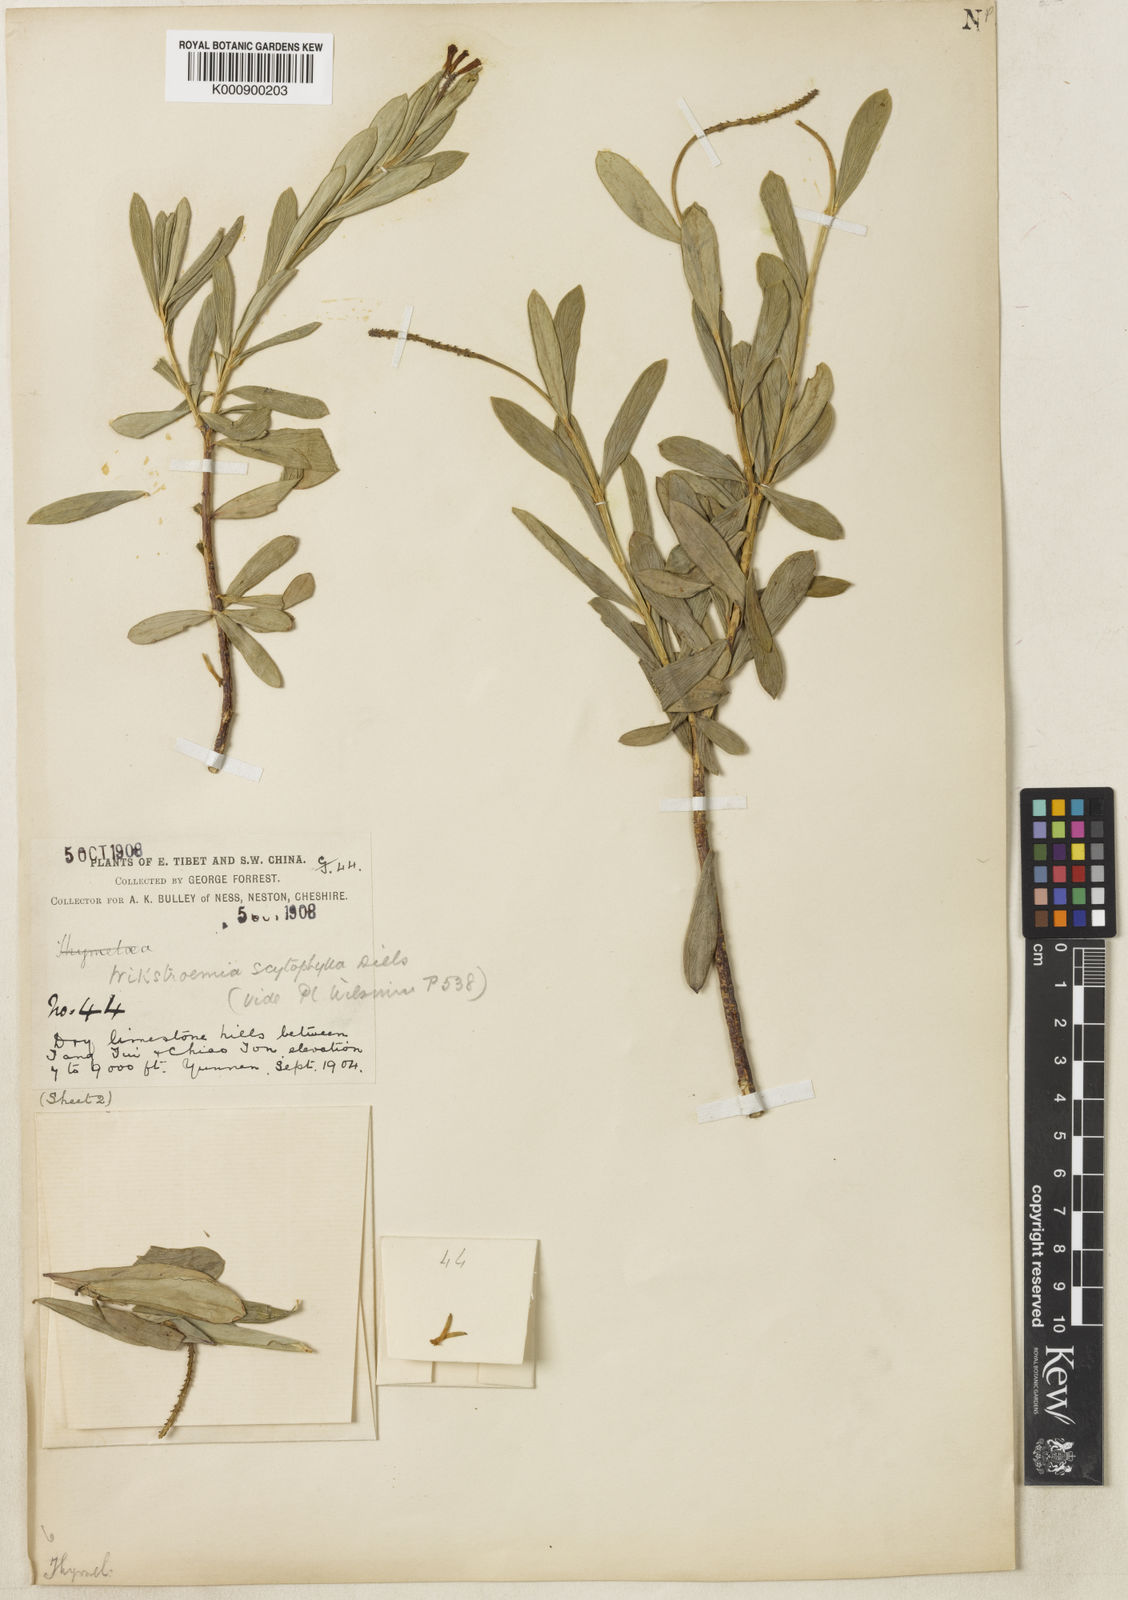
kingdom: Plantae
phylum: Tracheophyta
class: Magnoliopsida
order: Malvales
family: Thymelaeaceae
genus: Wikstroemia
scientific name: Wikstroemia scytophylla
